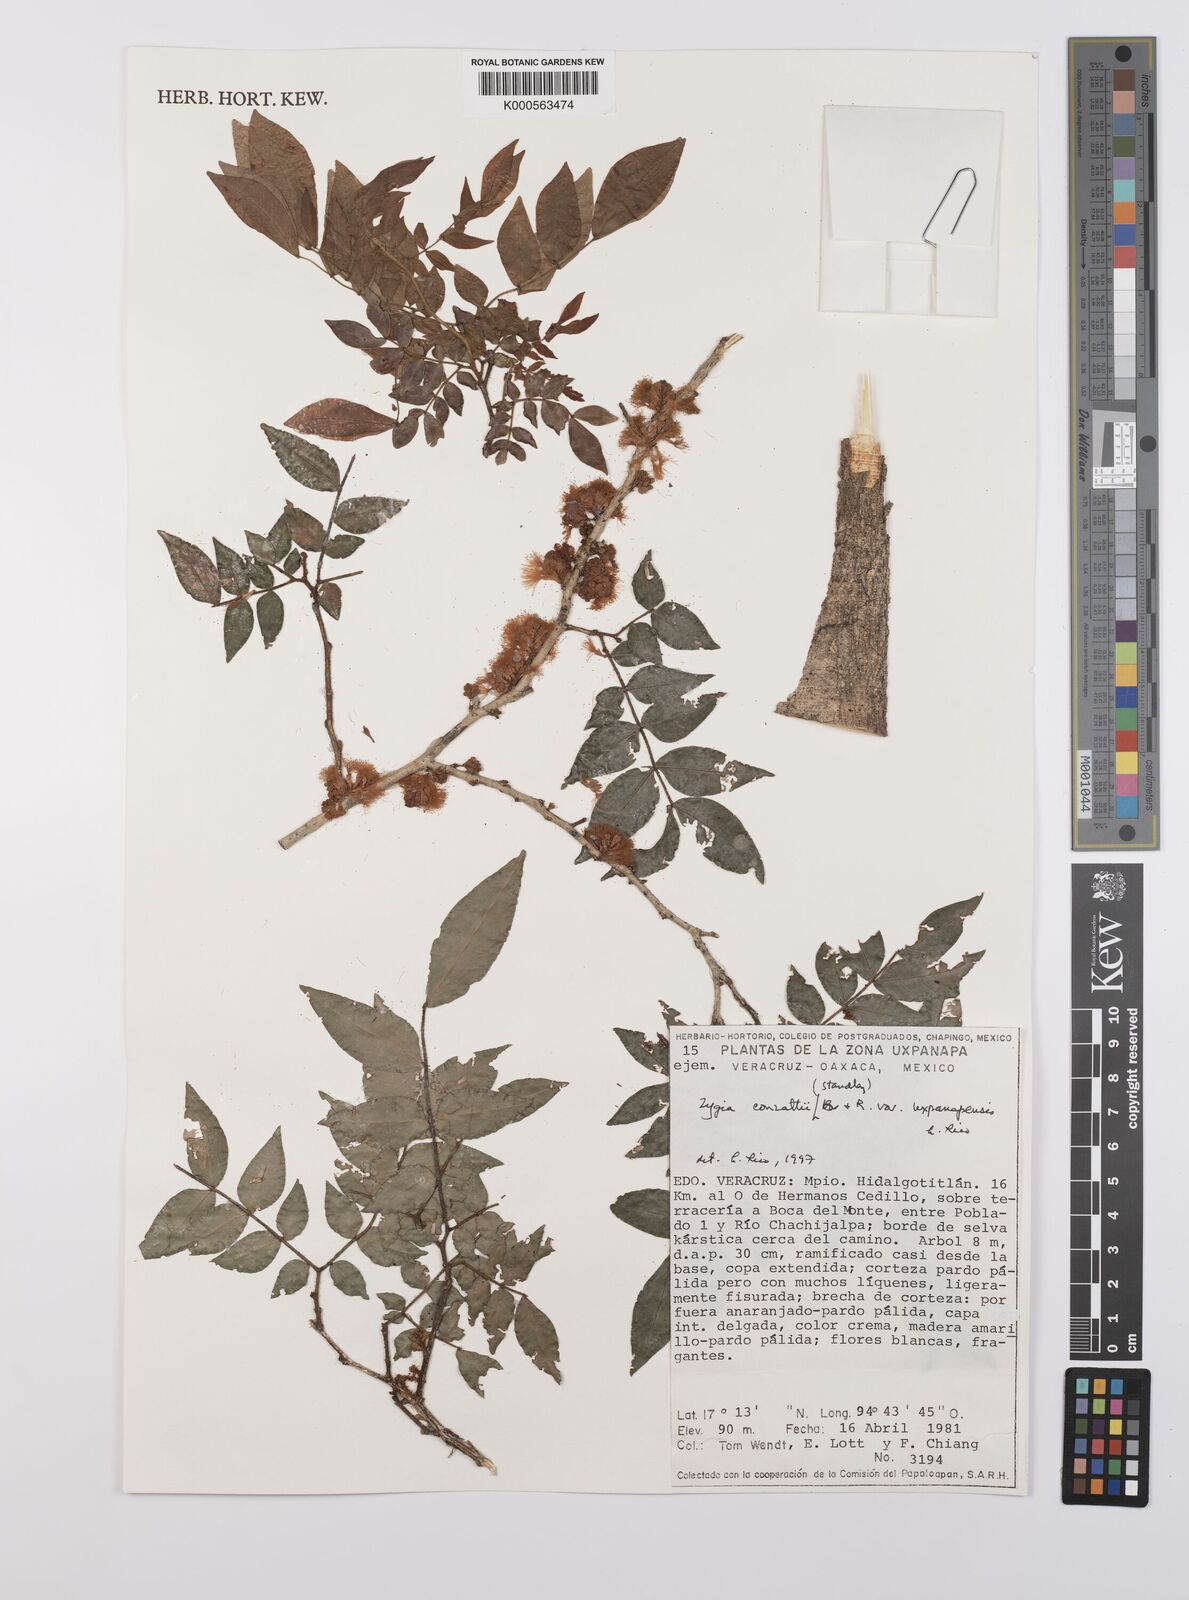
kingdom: Plantae
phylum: Tracheophyta
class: Magnoliopsida
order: Fabales
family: Fabaceae
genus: Zygia
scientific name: Zygia conzattii
